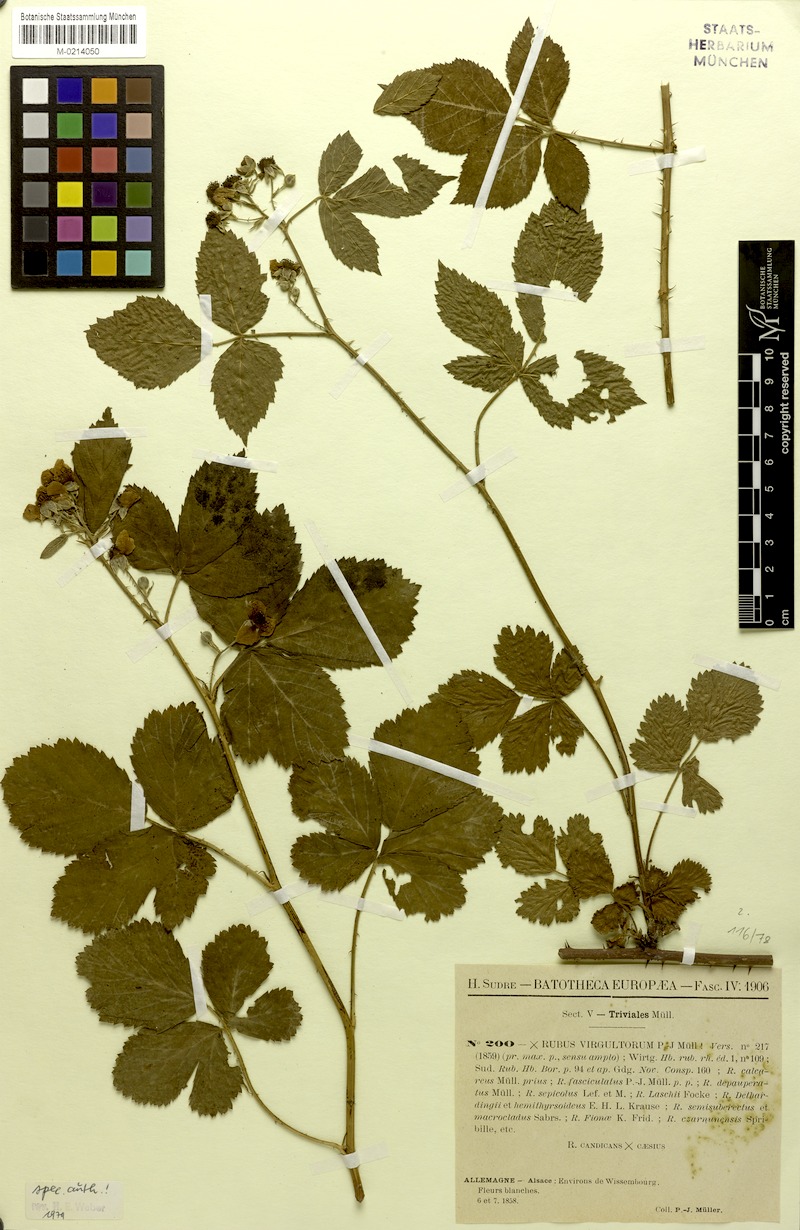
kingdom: Plantae
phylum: Tracheophyta
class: Magnoliopsida
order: Rosales
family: Rosaceae
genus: Rubus
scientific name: Rubus virgultorum
